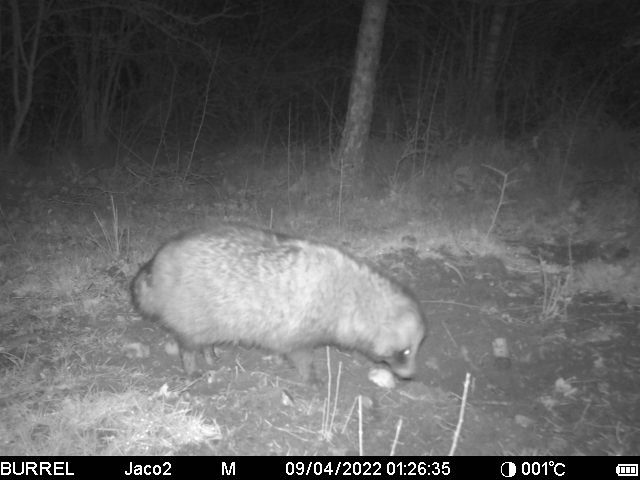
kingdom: Animalia
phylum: Chordata
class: Mammalia
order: Carnivora
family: Canidae
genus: Nyctereutes
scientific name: Nyctereutes procyonoides
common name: Mårhund
